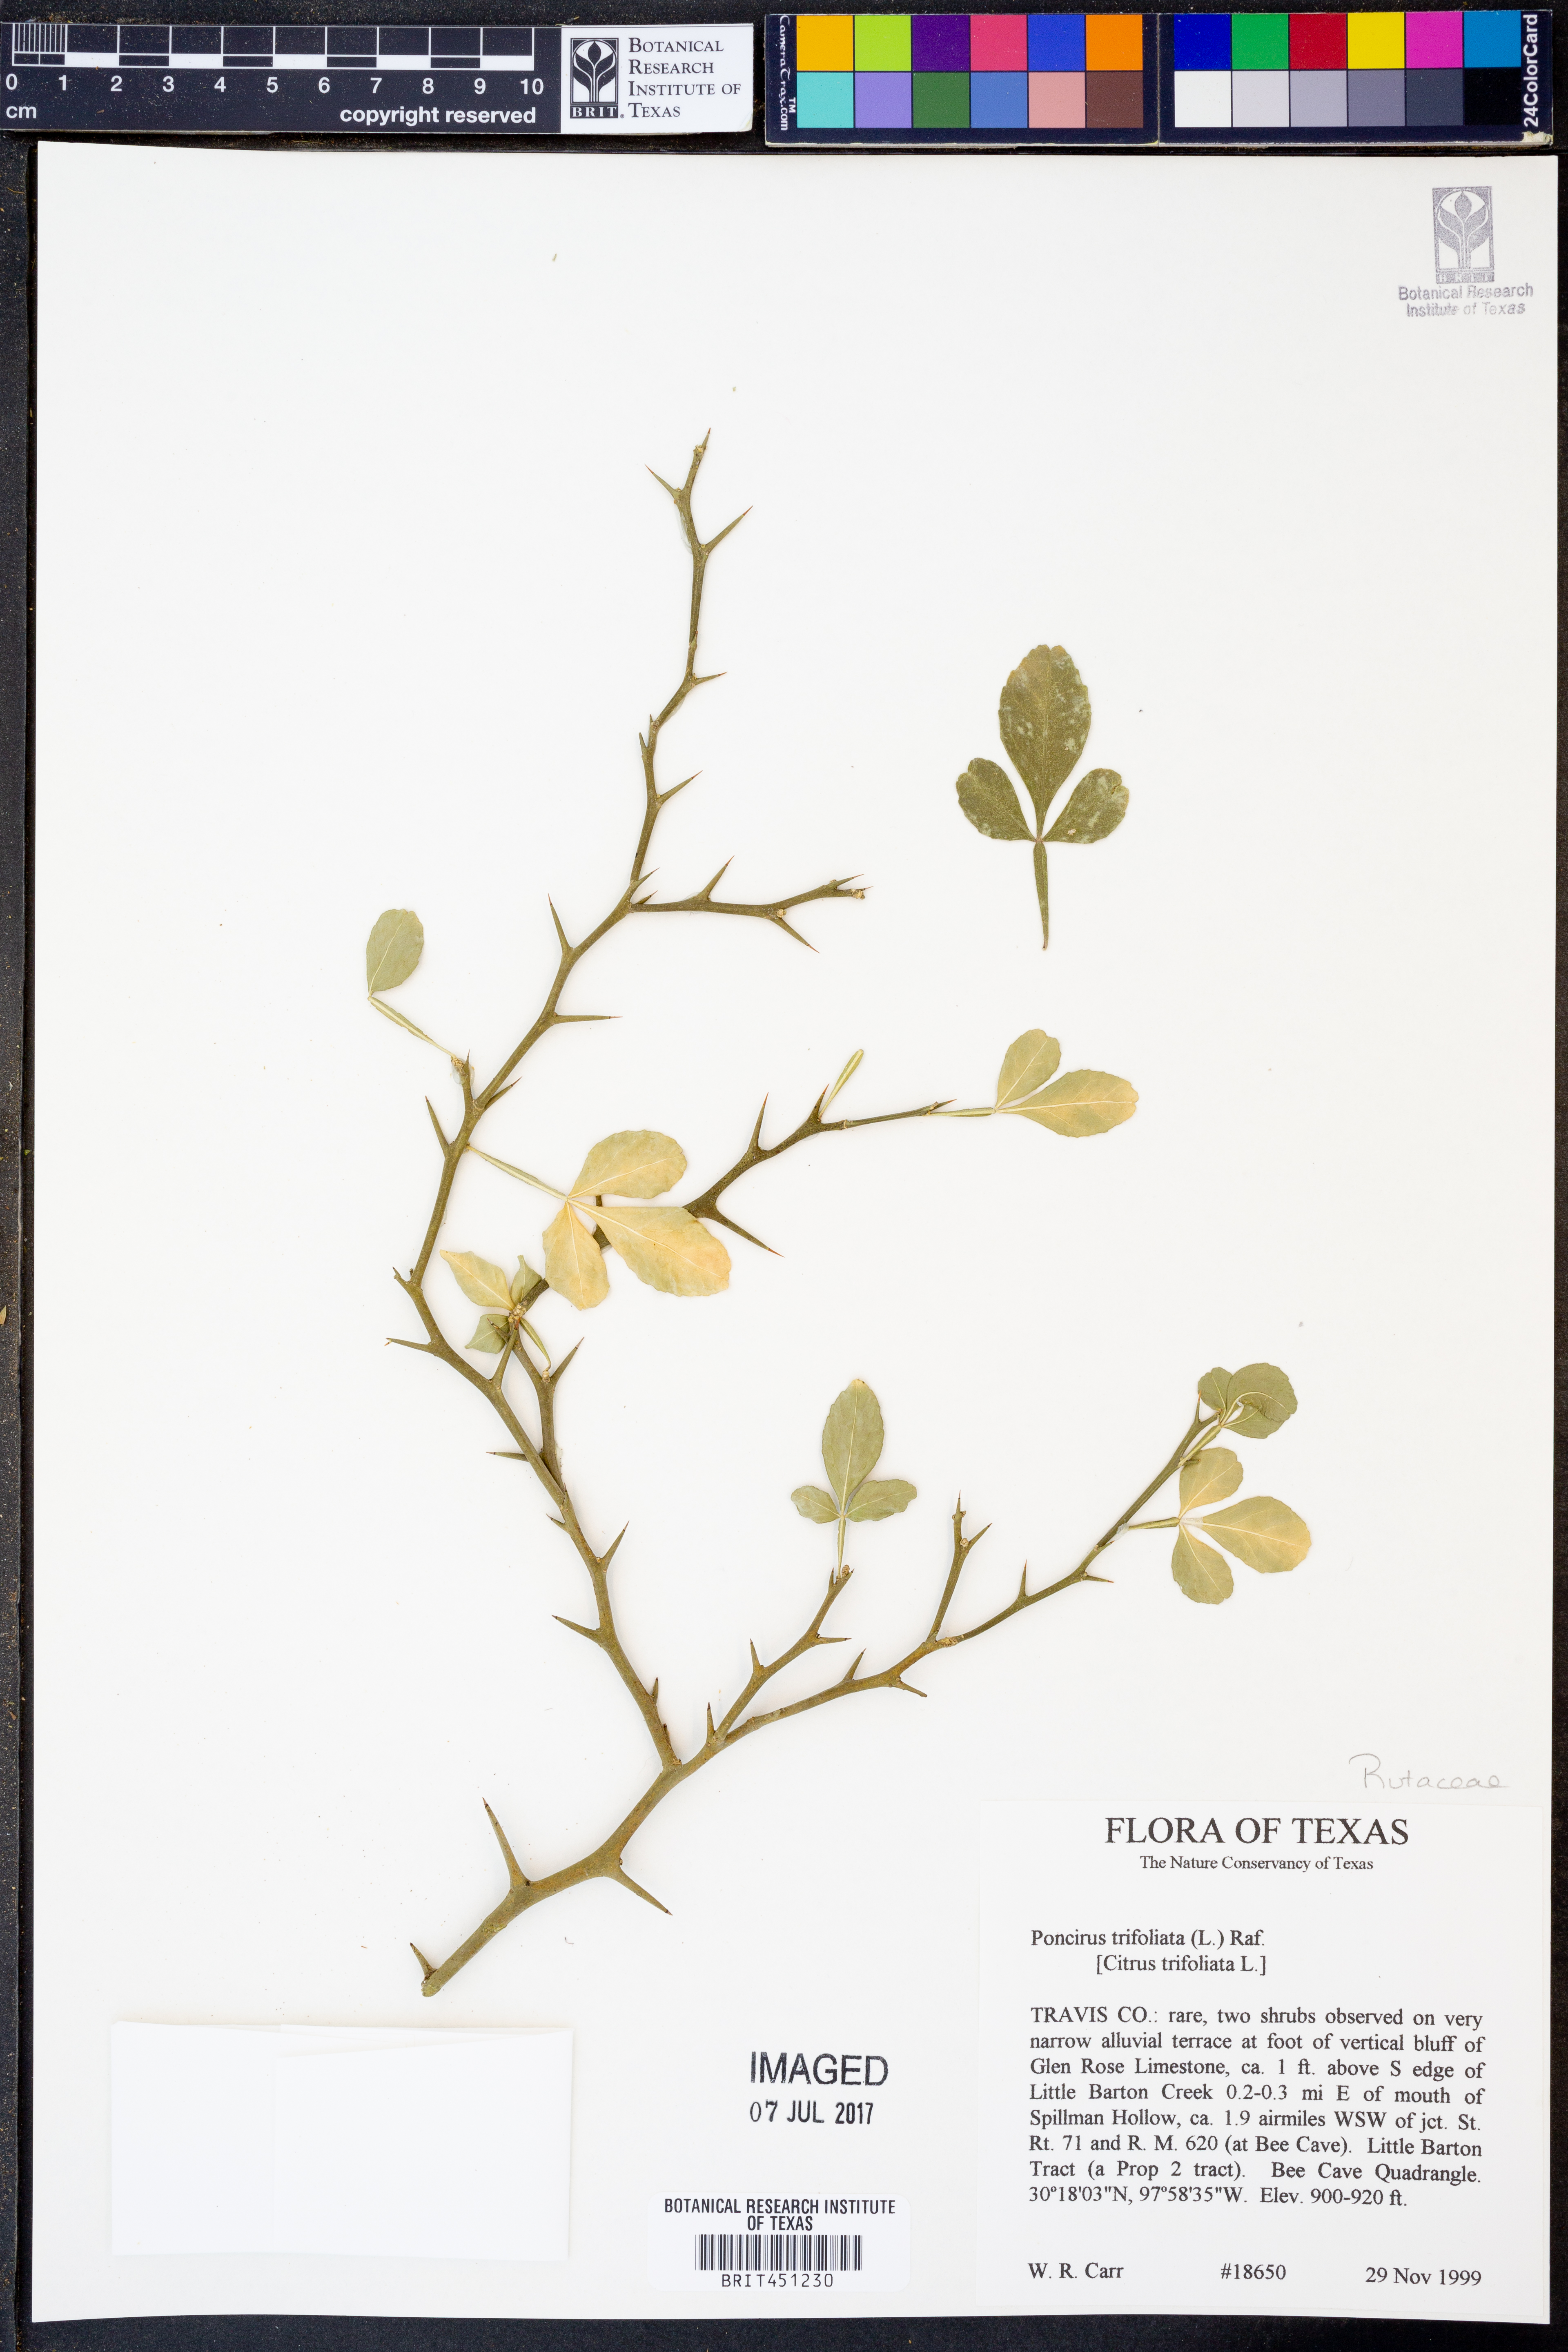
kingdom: Plantae
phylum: Tracheophyta
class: Magnoliopsida
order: Sapindales
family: Rutaceae
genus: Citrus
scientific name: Citrus trifoliata
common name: Japanese bitter-orange
